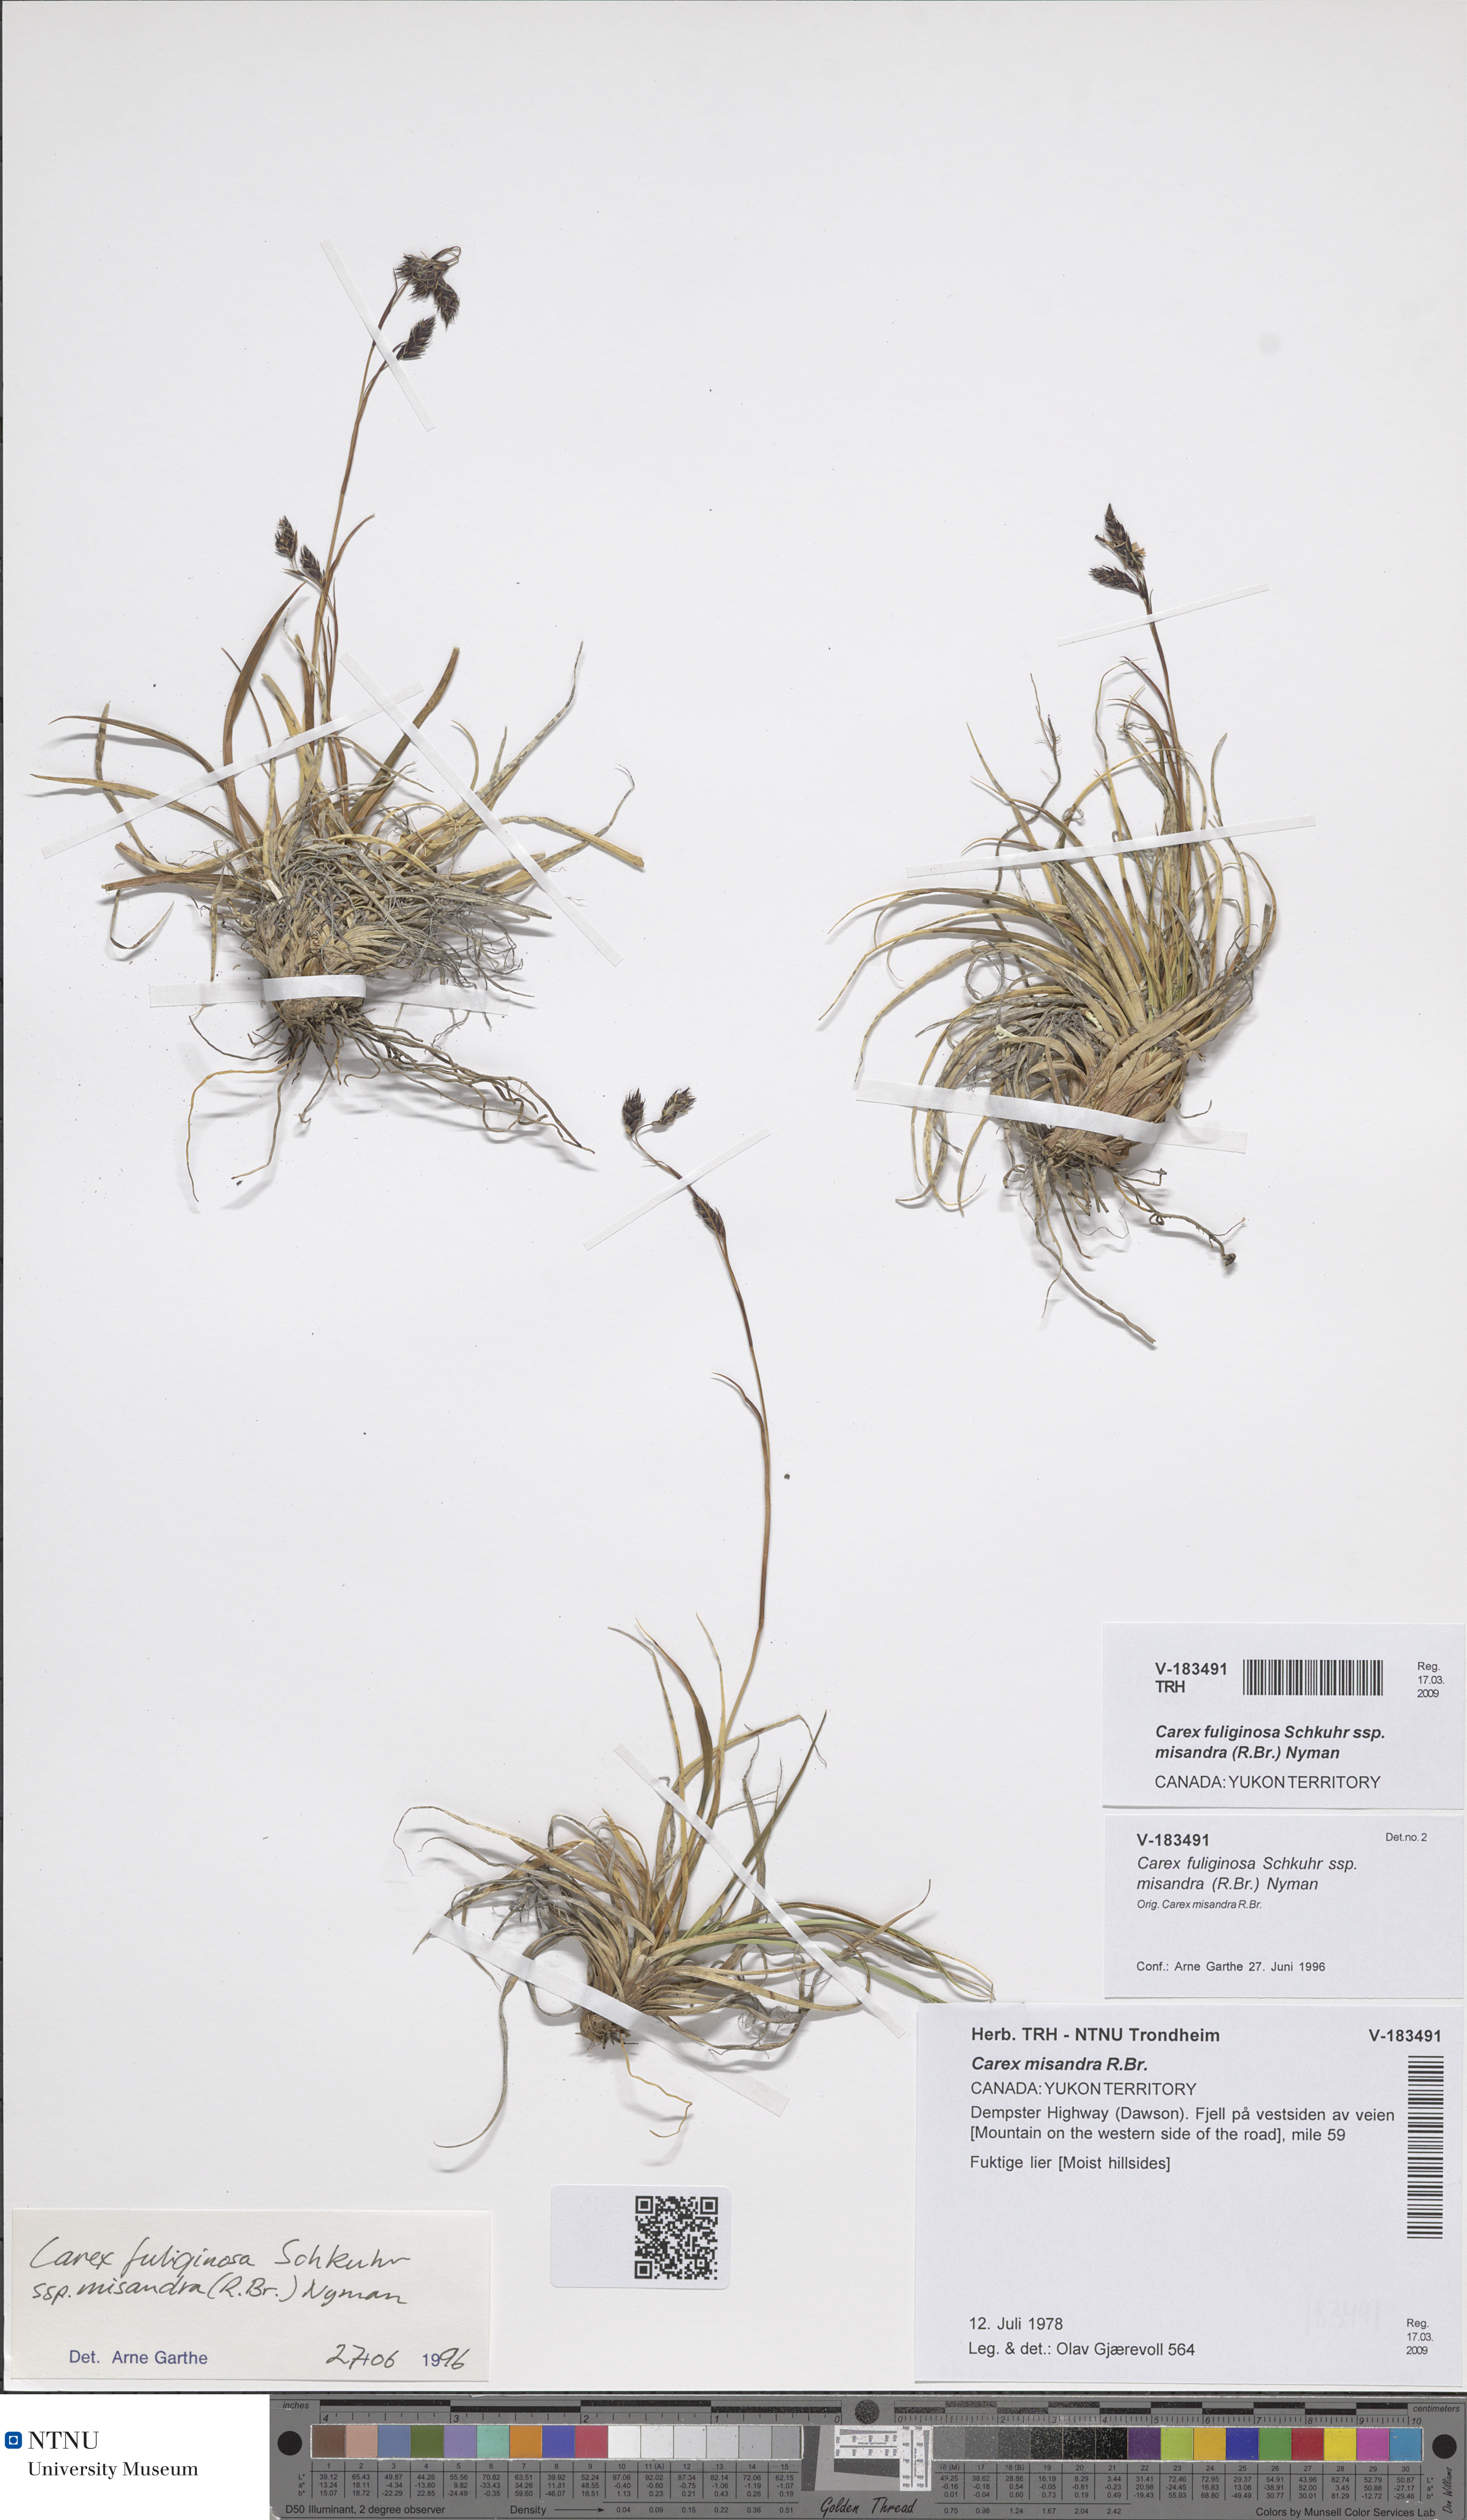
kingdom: Plantae
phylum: Tracheophyta
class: Liliopsida
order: Poales
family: Cyperaceae
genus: Carex
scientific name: Carex fuliginosa
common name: Few-flowered sedge
